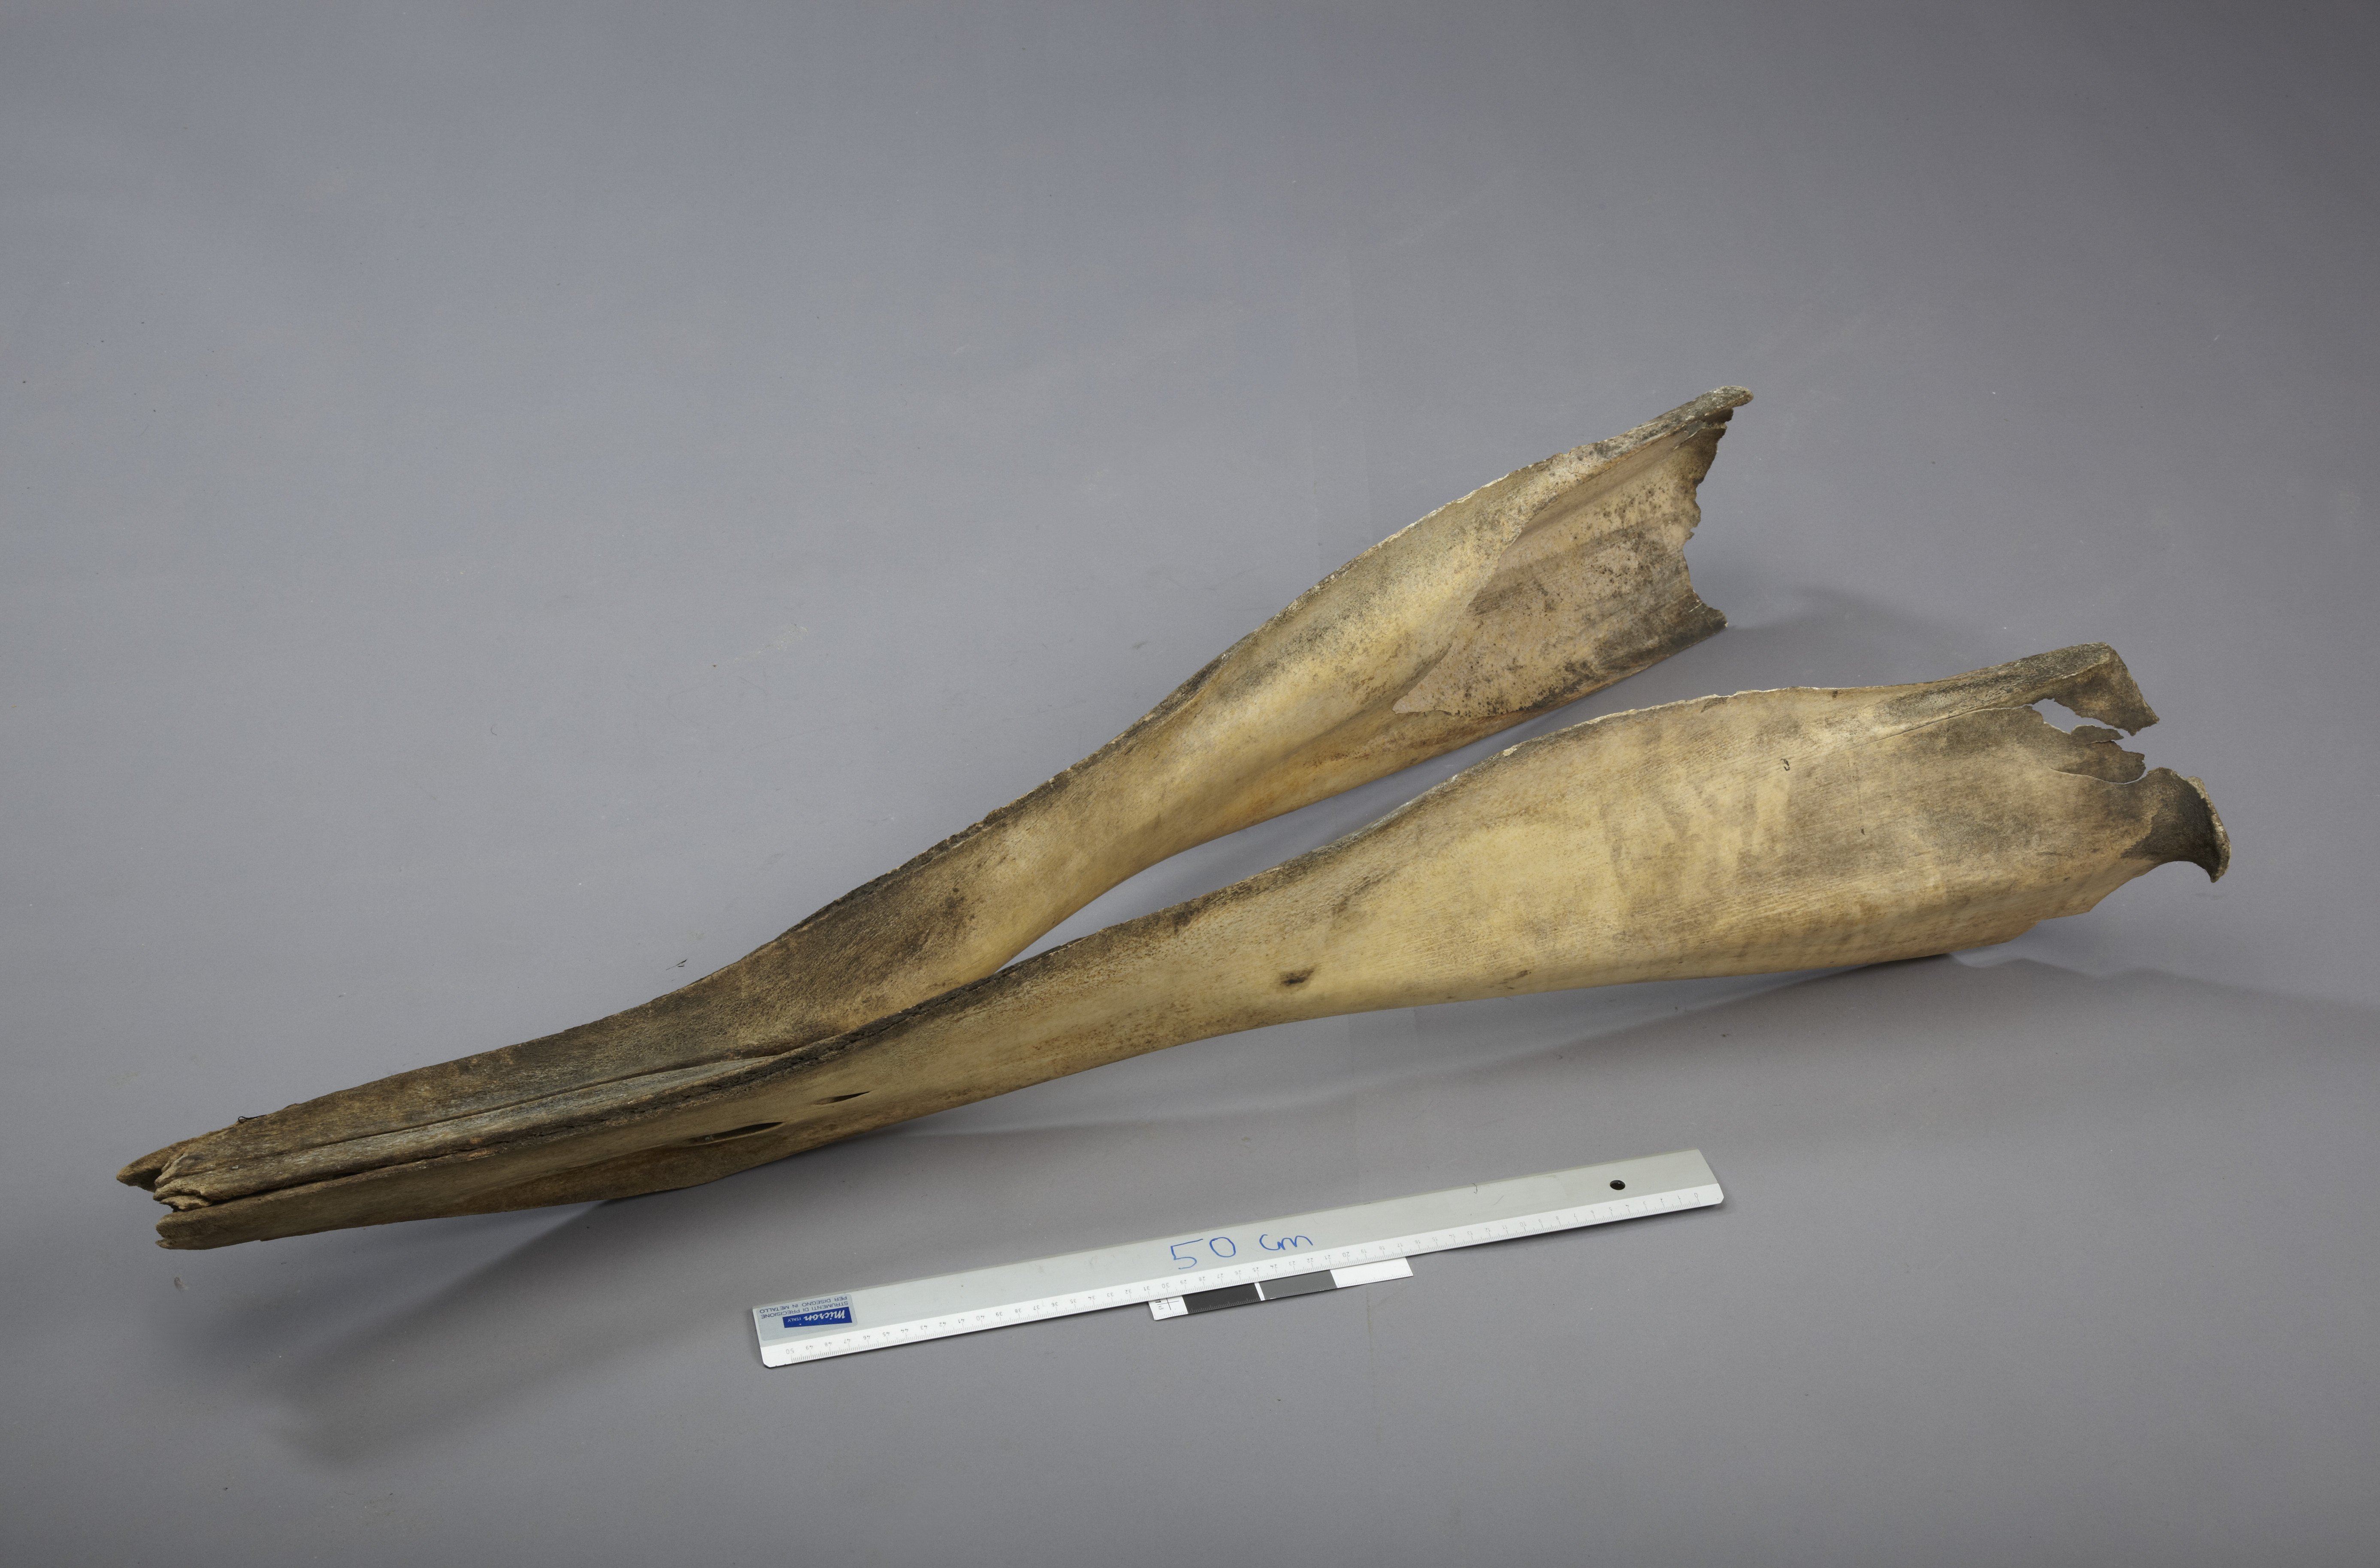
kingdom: Animalia
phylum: Chordata
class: Mammalia
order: Cetacea
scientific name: Cetacea
